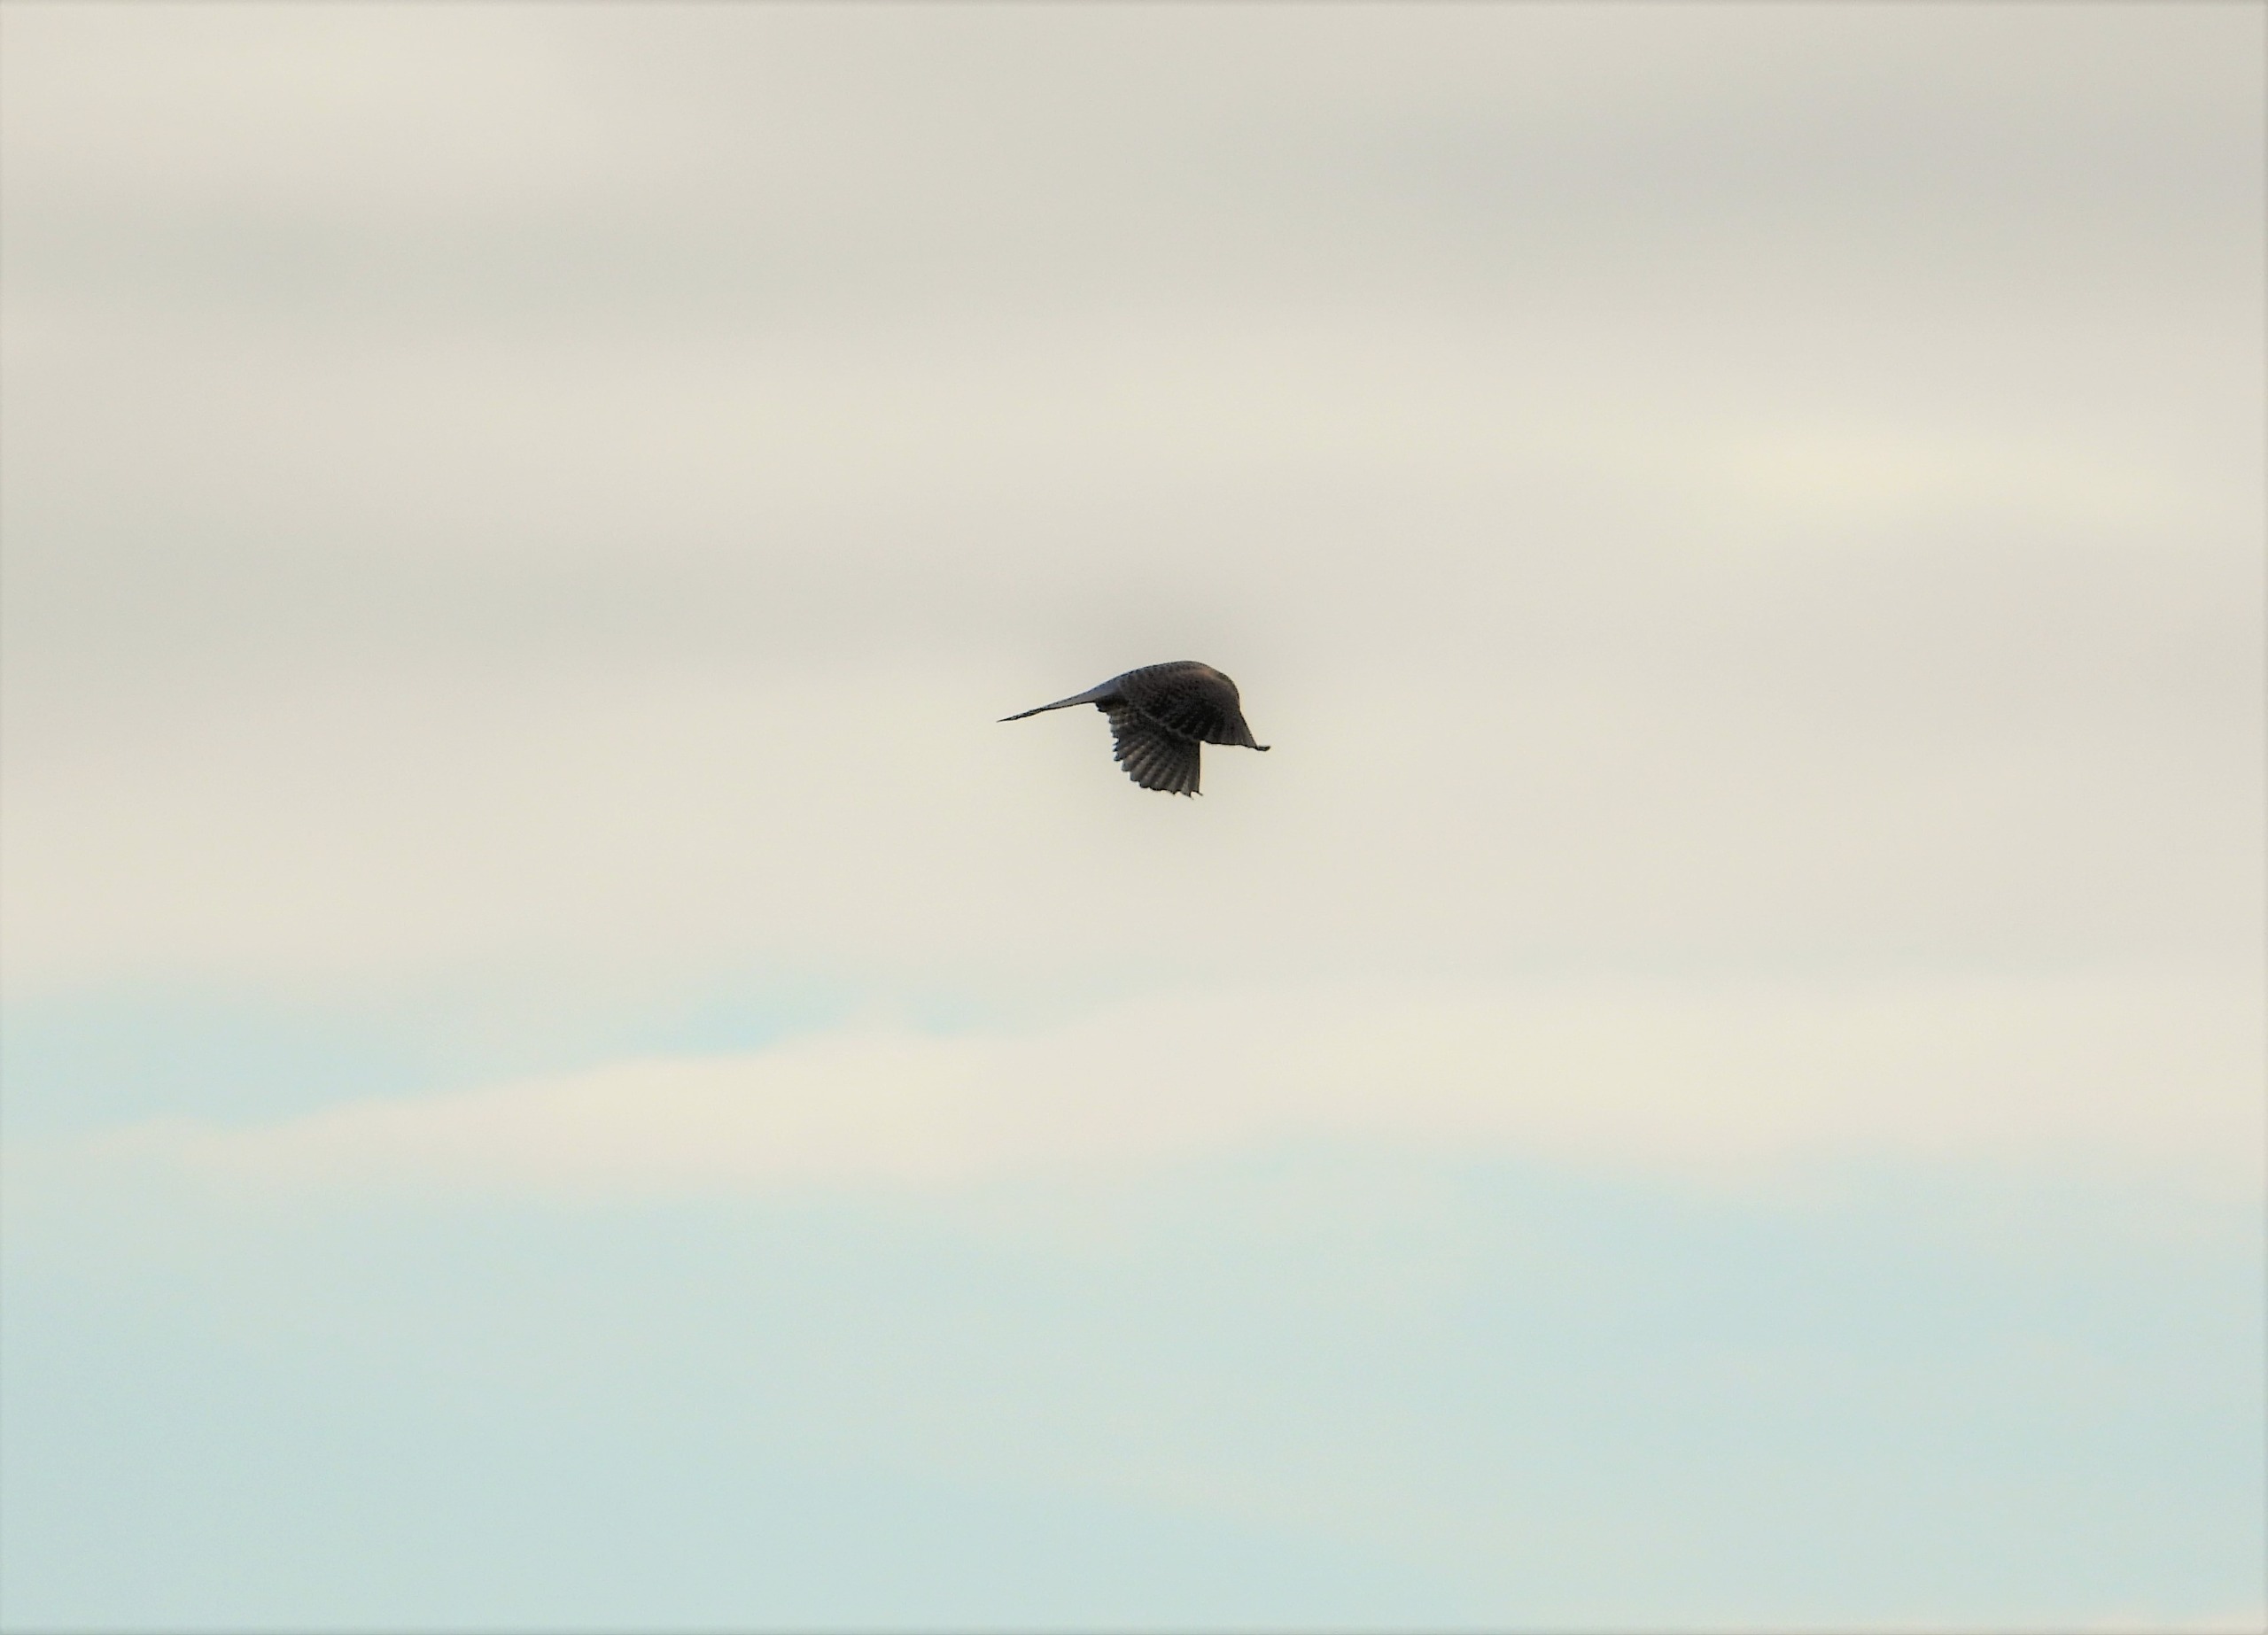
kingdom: Animalia
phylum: Chordata
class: Aves
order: Falconiformes
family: Falconidae
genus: Falco
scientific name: Falco tinnunculus
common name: Tårnfalk
